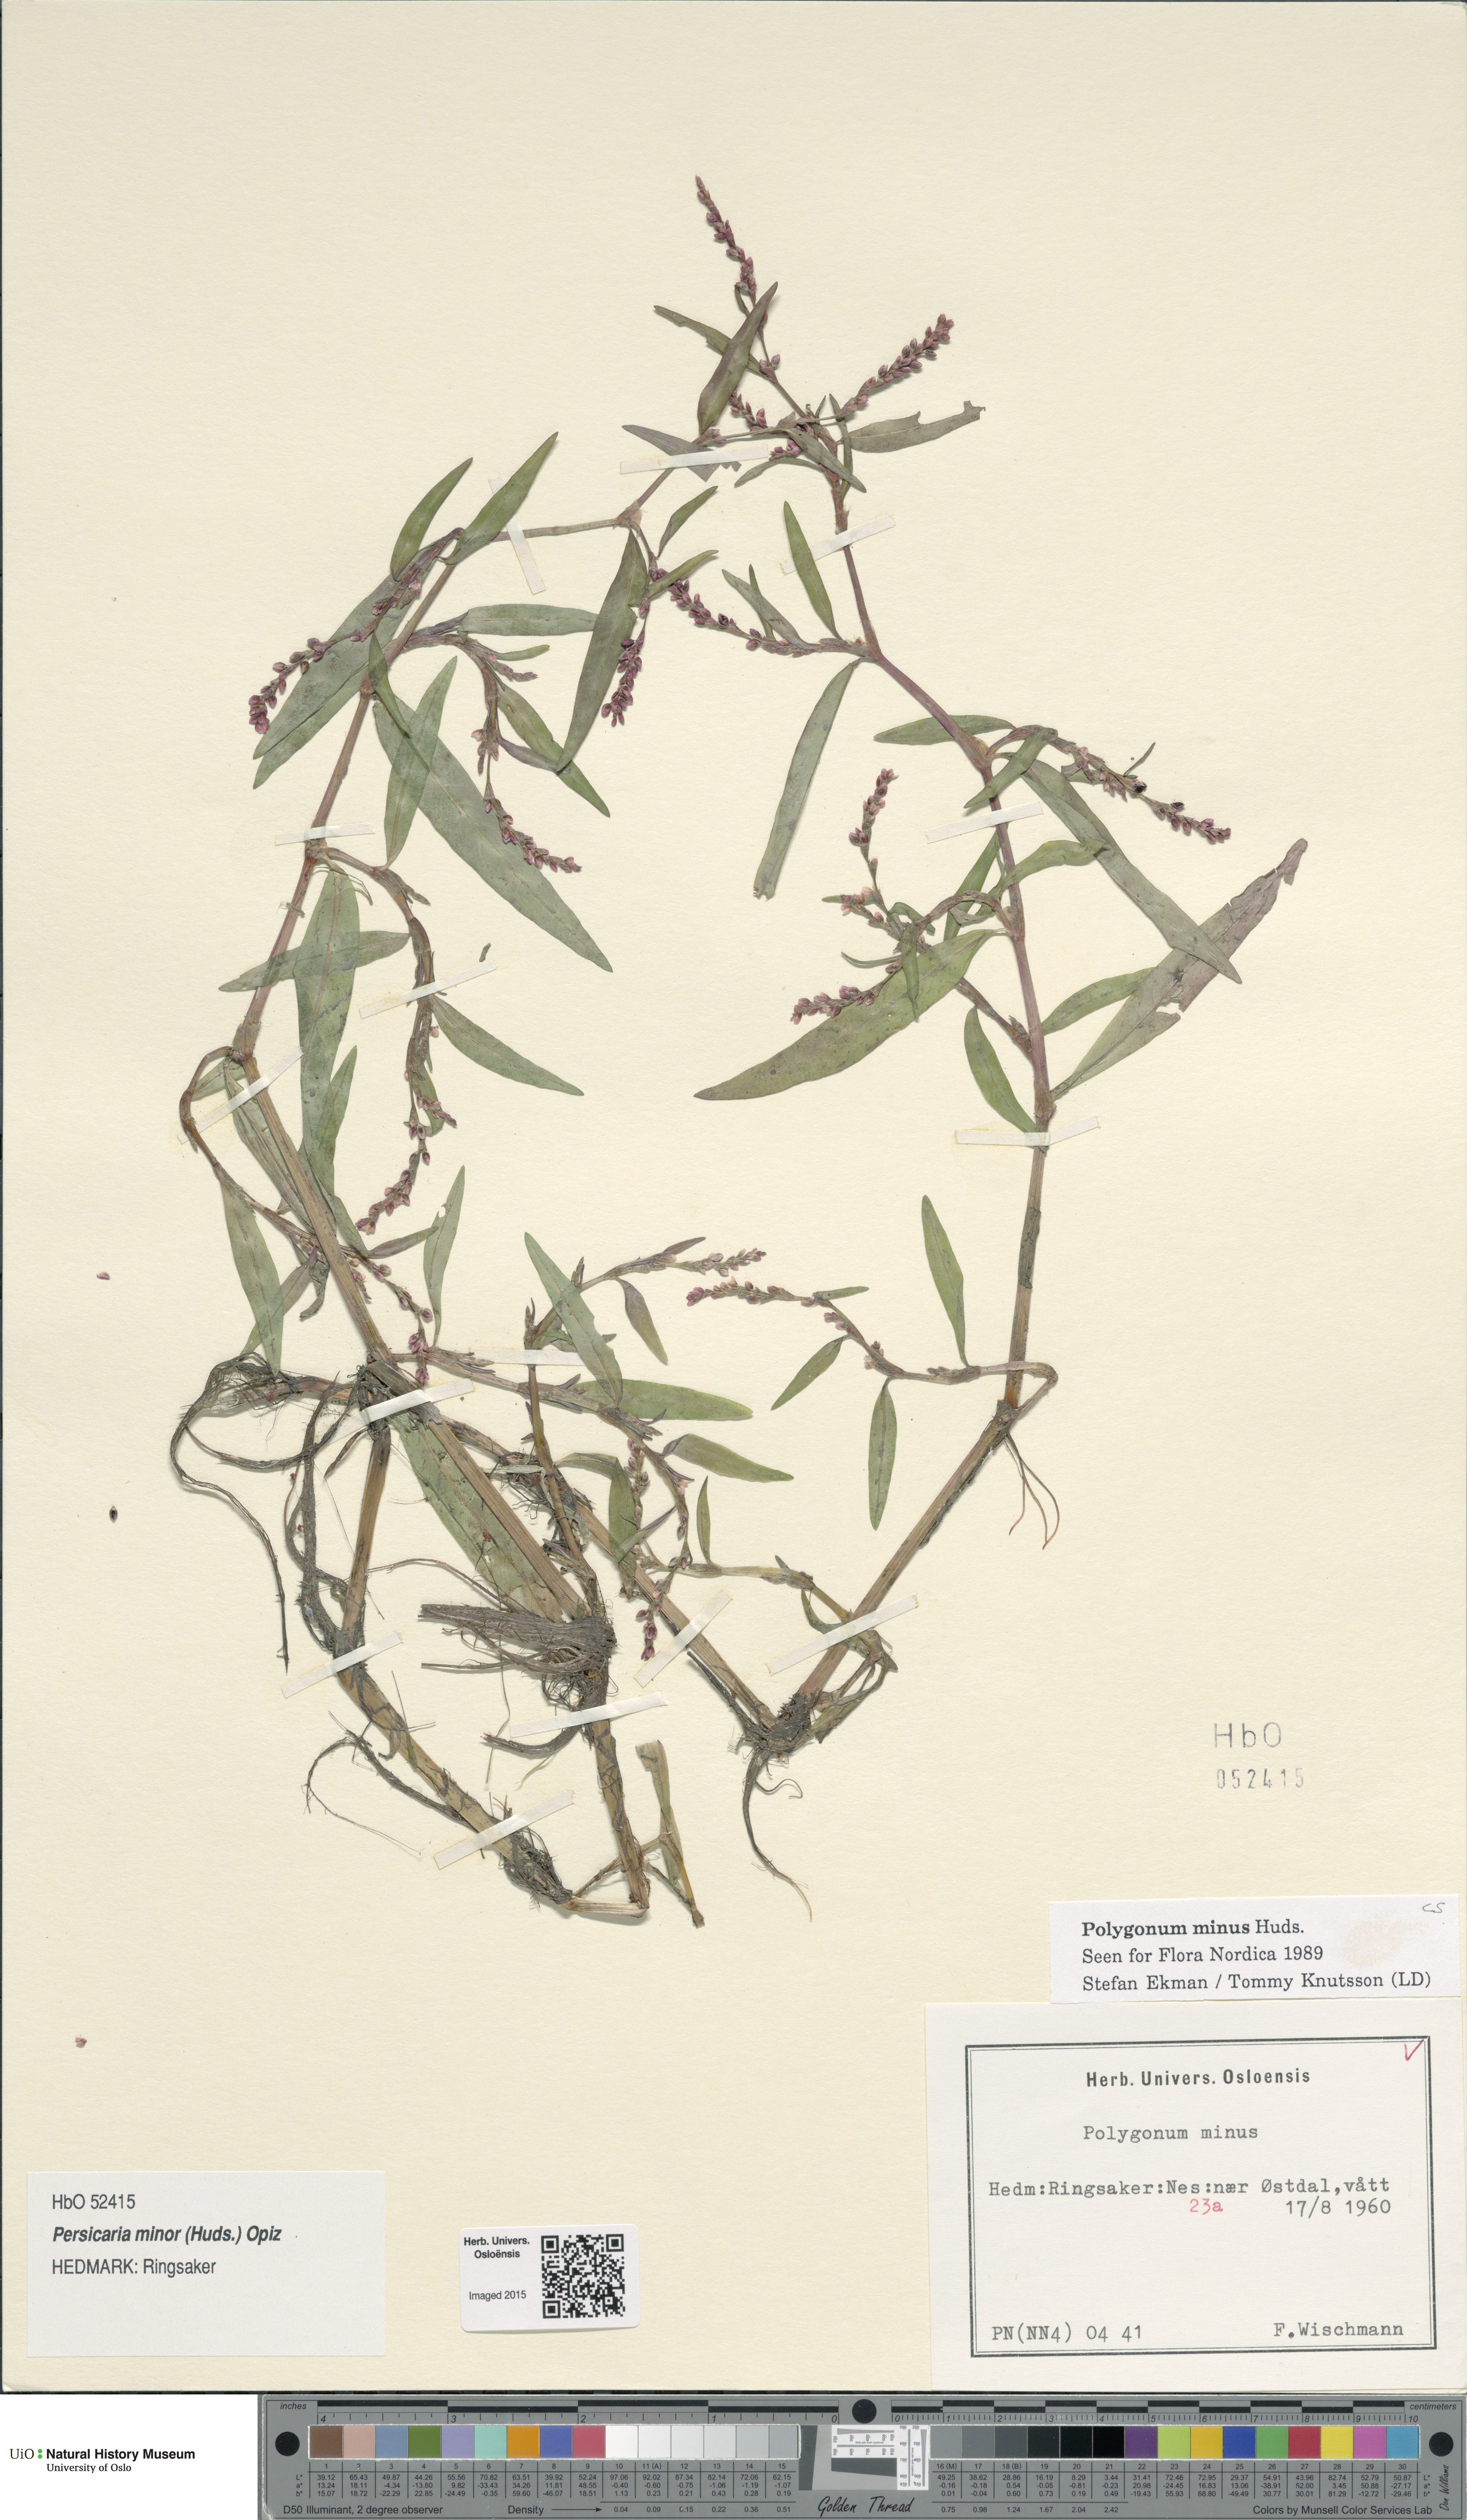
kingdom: Plantae
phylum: Tracheophyta
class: Magnoliopsida
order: Caryophyllales
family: Polygonaceae
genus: Persicaria
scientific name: Persicaria minor
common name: Small water-pepper
